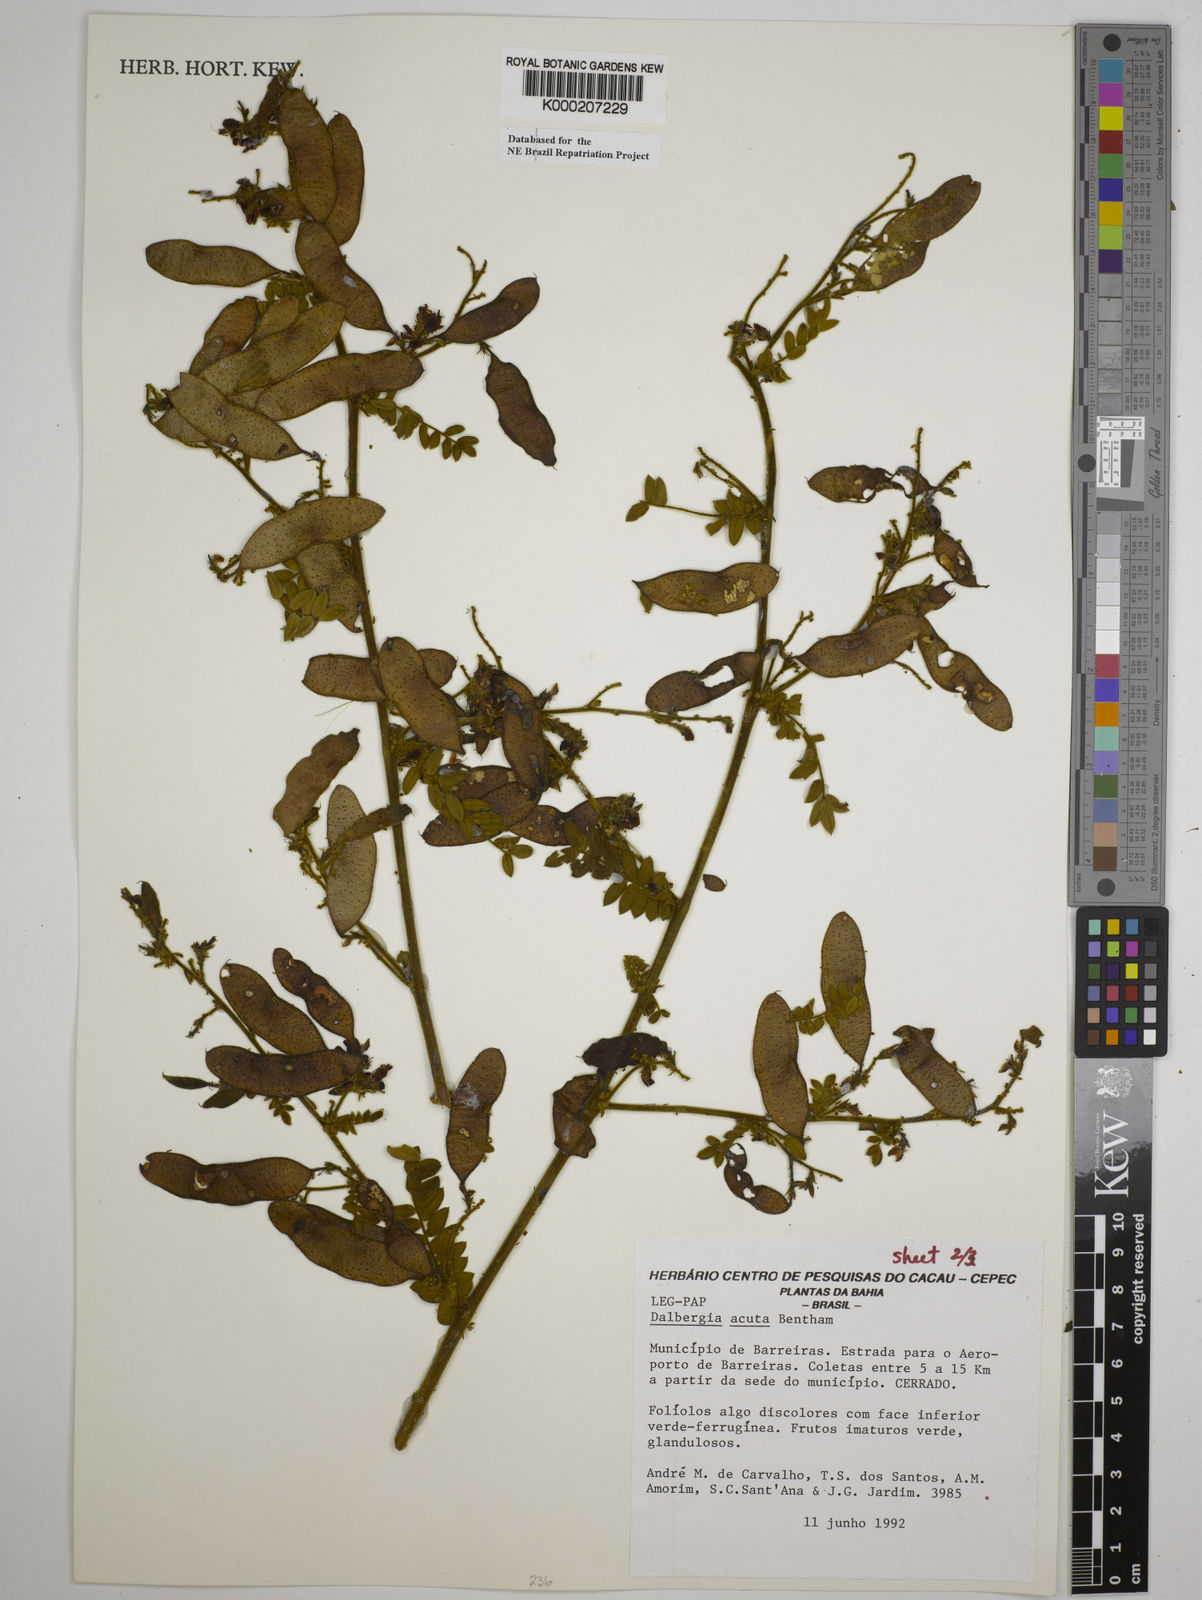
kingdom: Plantae
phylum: Tracheophyta
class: Magnoliopsida
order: Fabales
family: Fabaceae
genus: Dalbergia
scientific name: Dalbergia acuta
